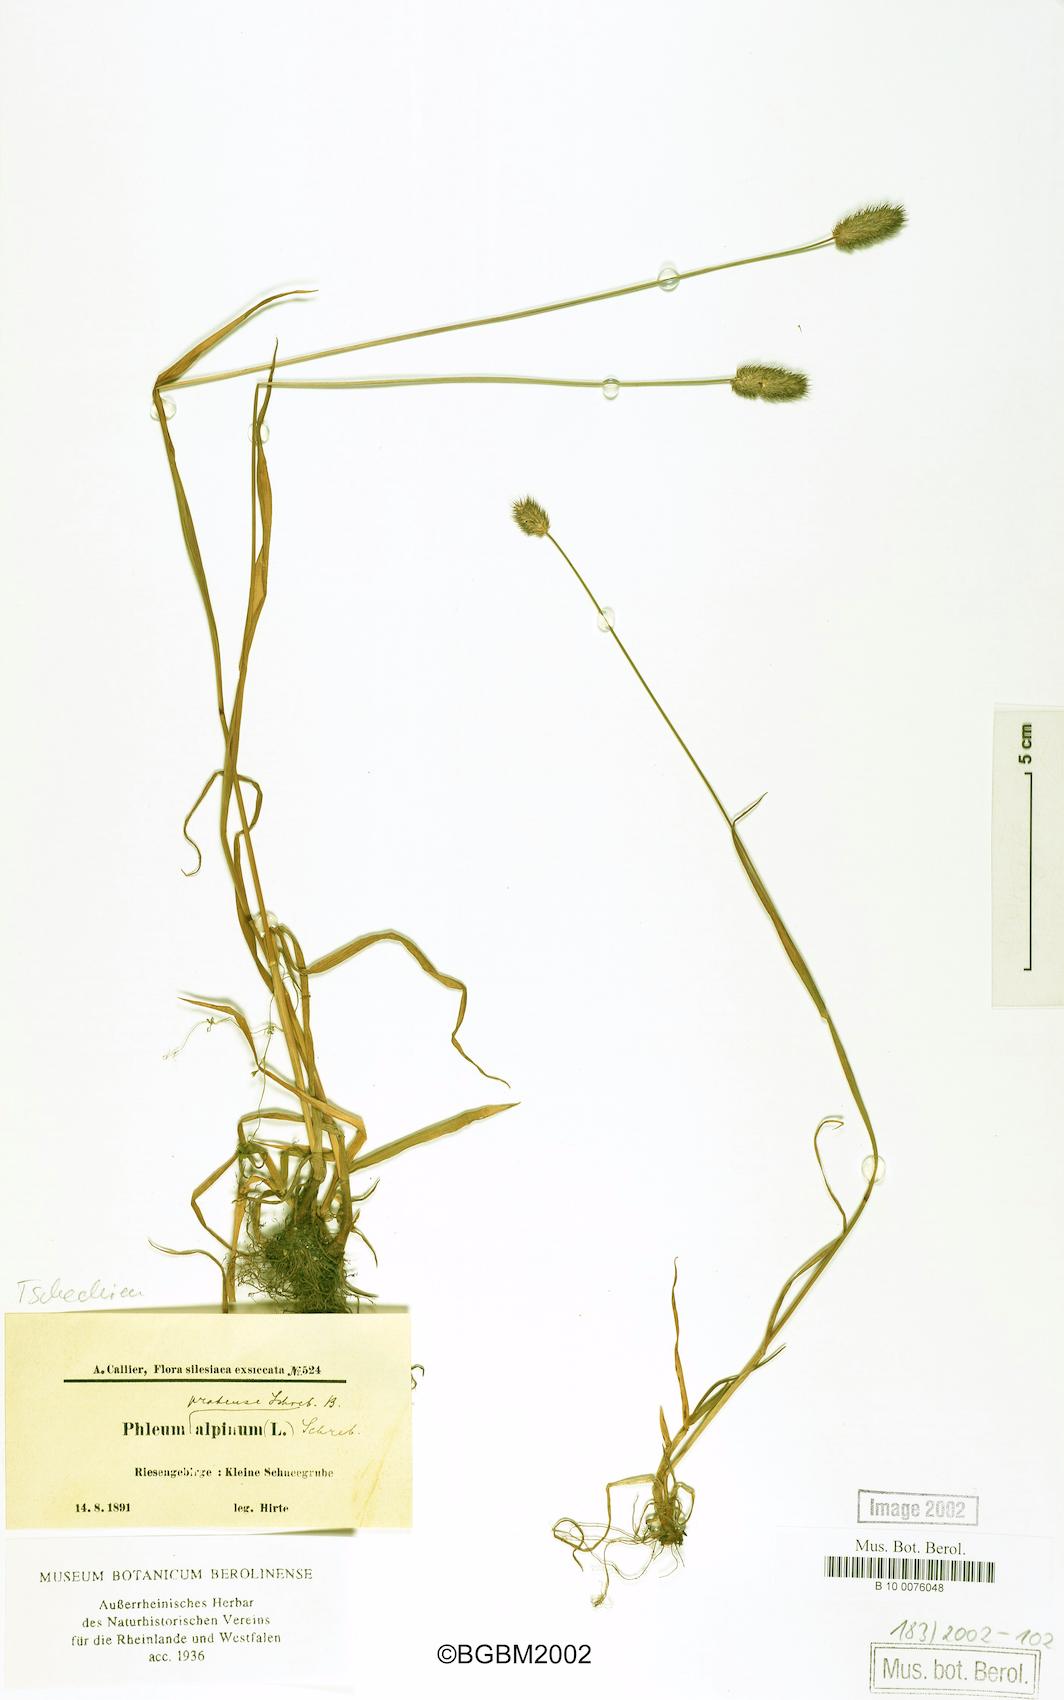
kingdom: Plantae
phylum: Tracheophyta
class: Liliopsida
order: Poales
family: Poaceae
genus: Phleum
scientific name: Phleum alpinum
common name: Alpine cat's-tail
